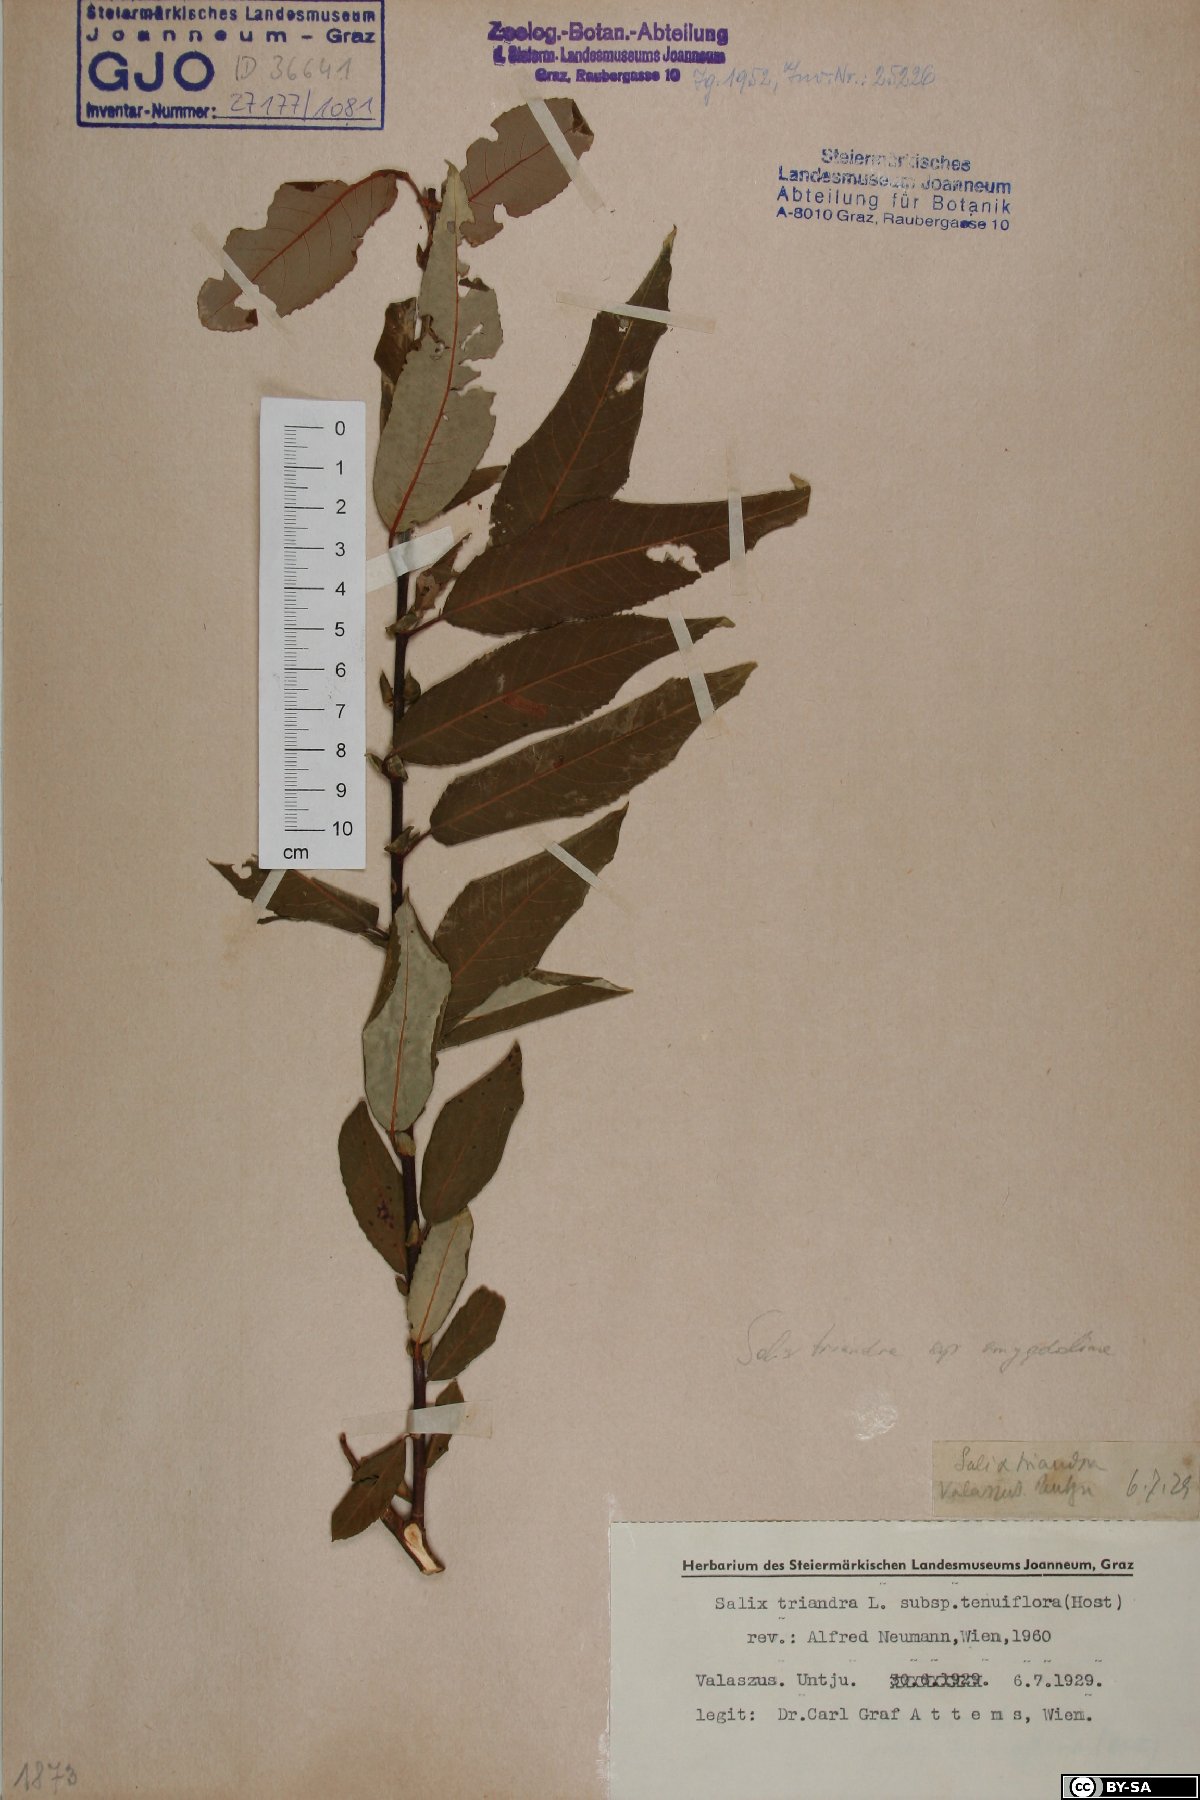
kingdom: Plantae
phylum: Tracheophyta
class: Magnoliopsida
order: Malpighiales
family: Salicaceae
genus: Salix
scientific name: Salix triandra
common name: Almond willow
